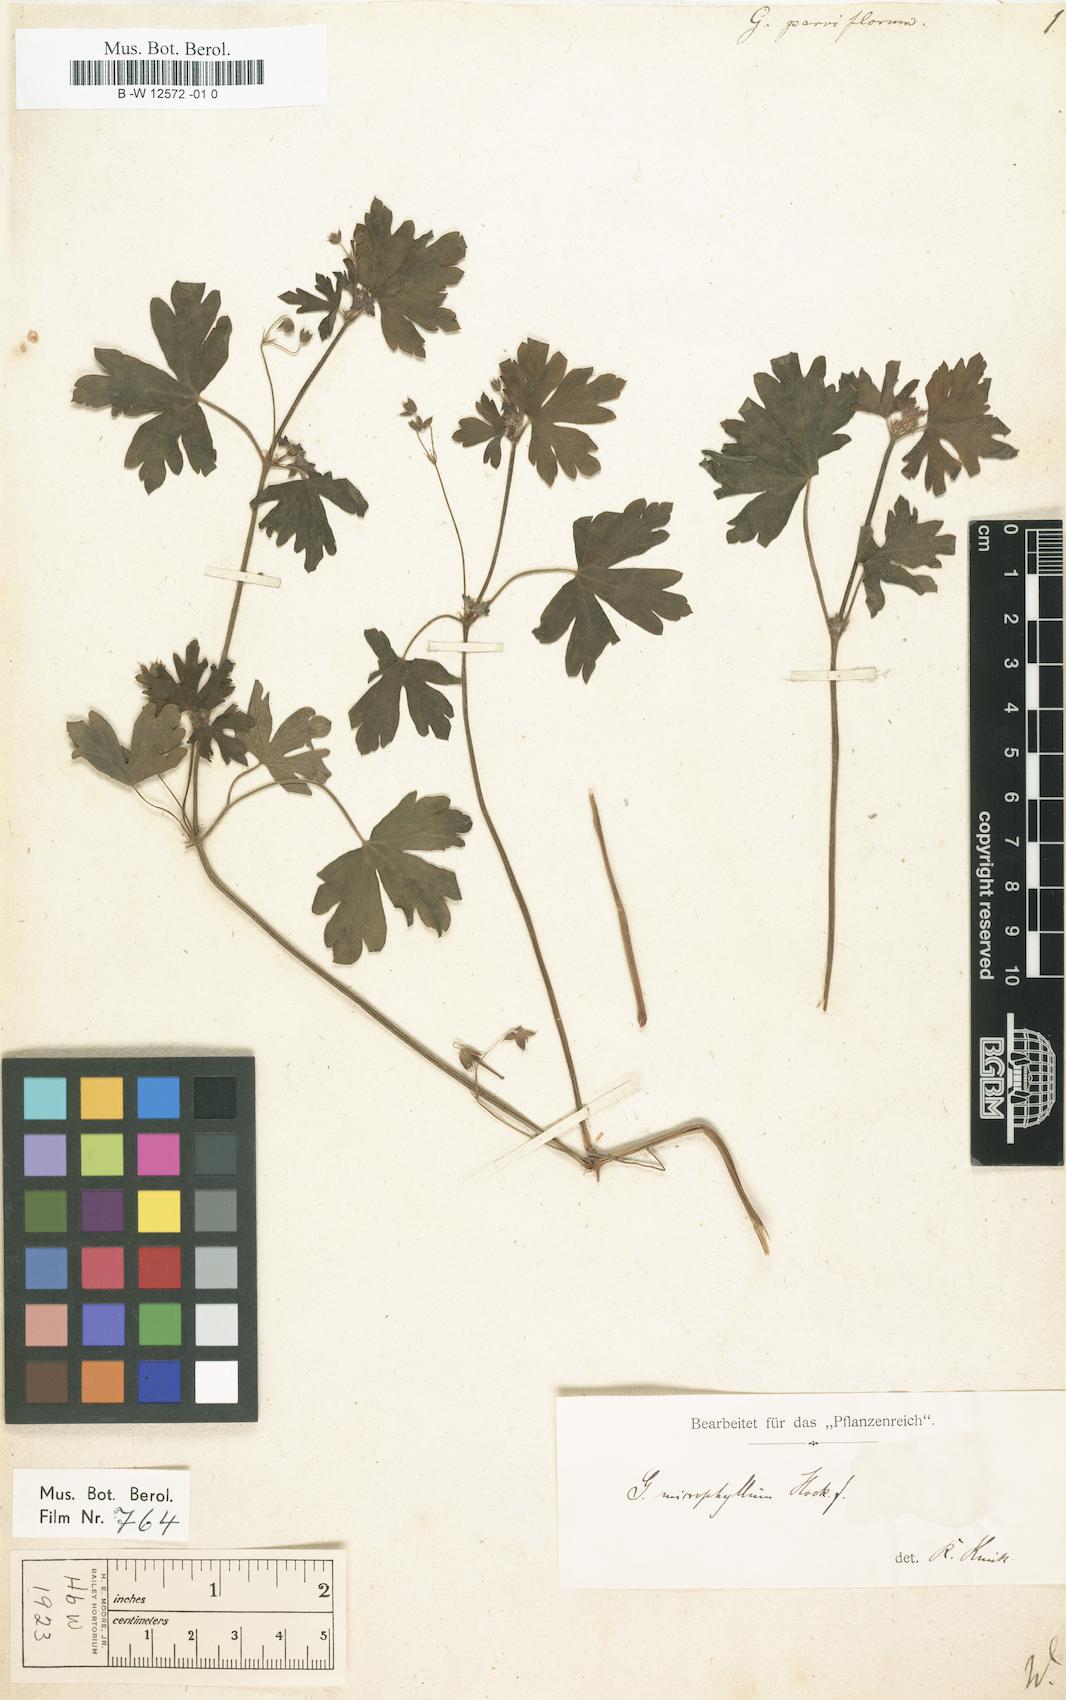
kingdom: Plantae
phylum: Tracheophyta
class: Magnoliopsida
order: Geraniales
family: Geraniaceae
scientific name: Geraniaceae
